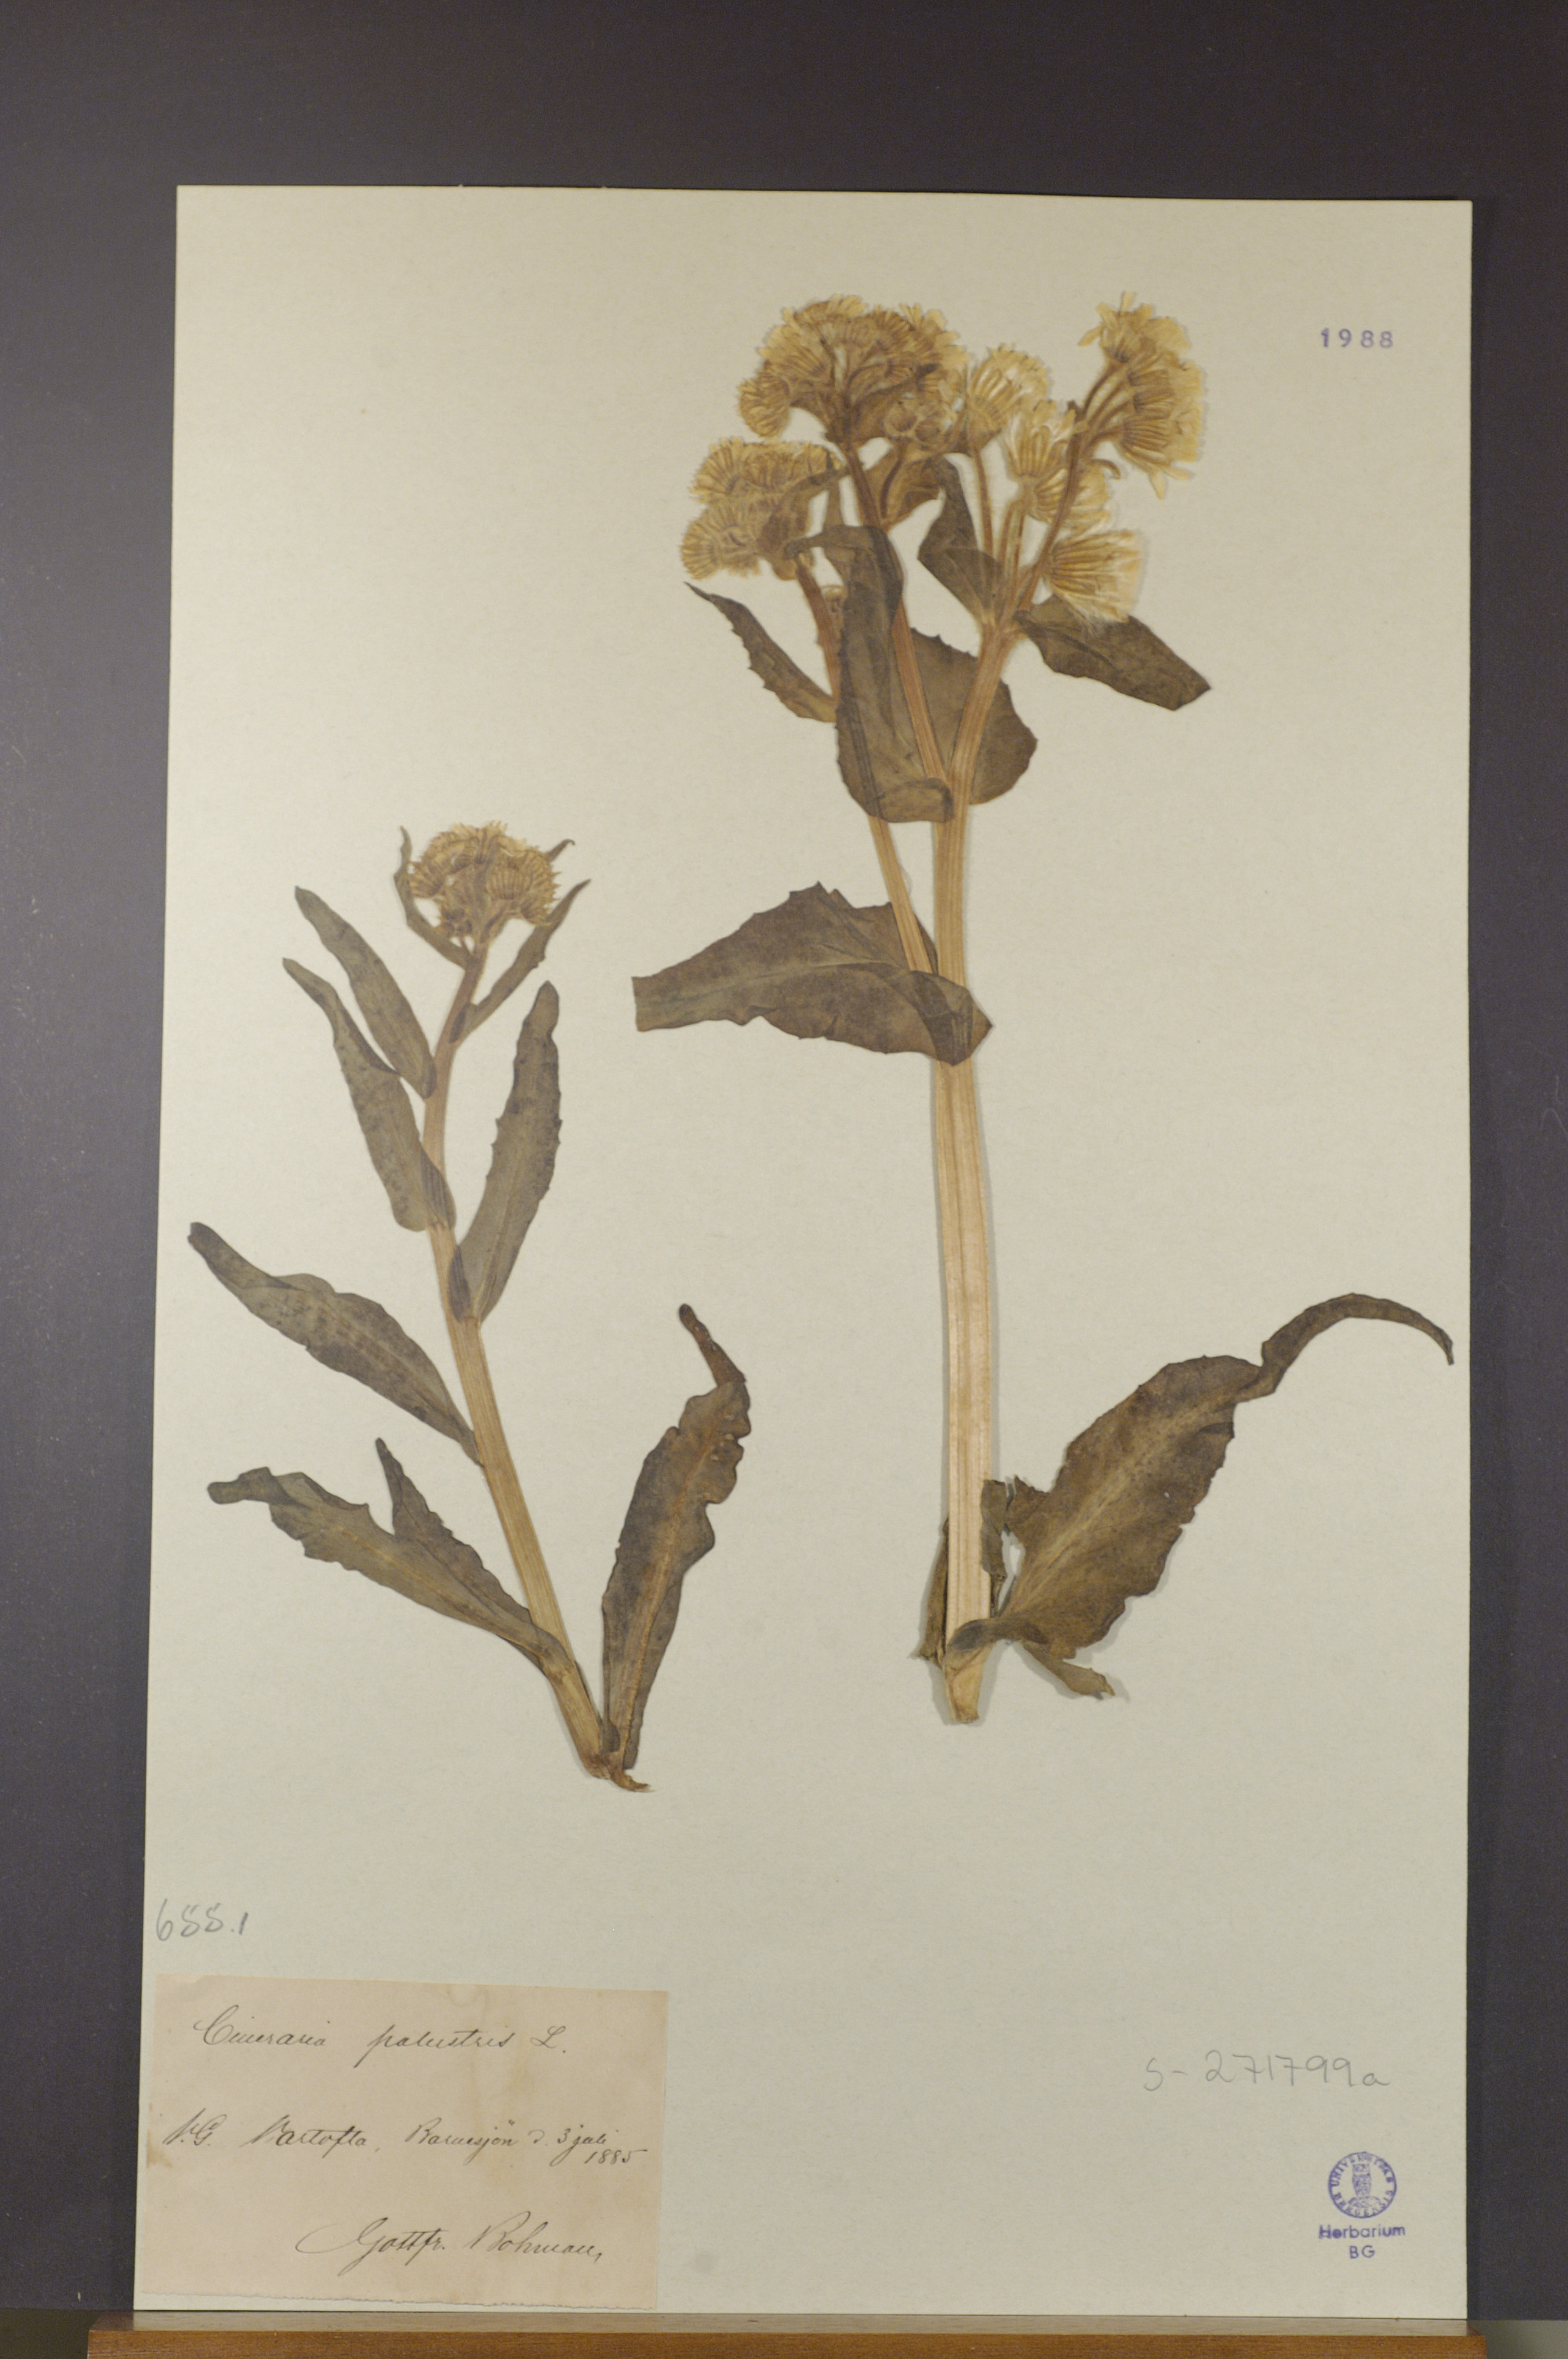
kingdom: Plantae
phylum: Tracheophyta
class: Magnoliopsida
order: Asterales
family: Asteraceae
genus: Tephroseris
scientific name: Tephroseris palustris
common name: Marsh fleawort
